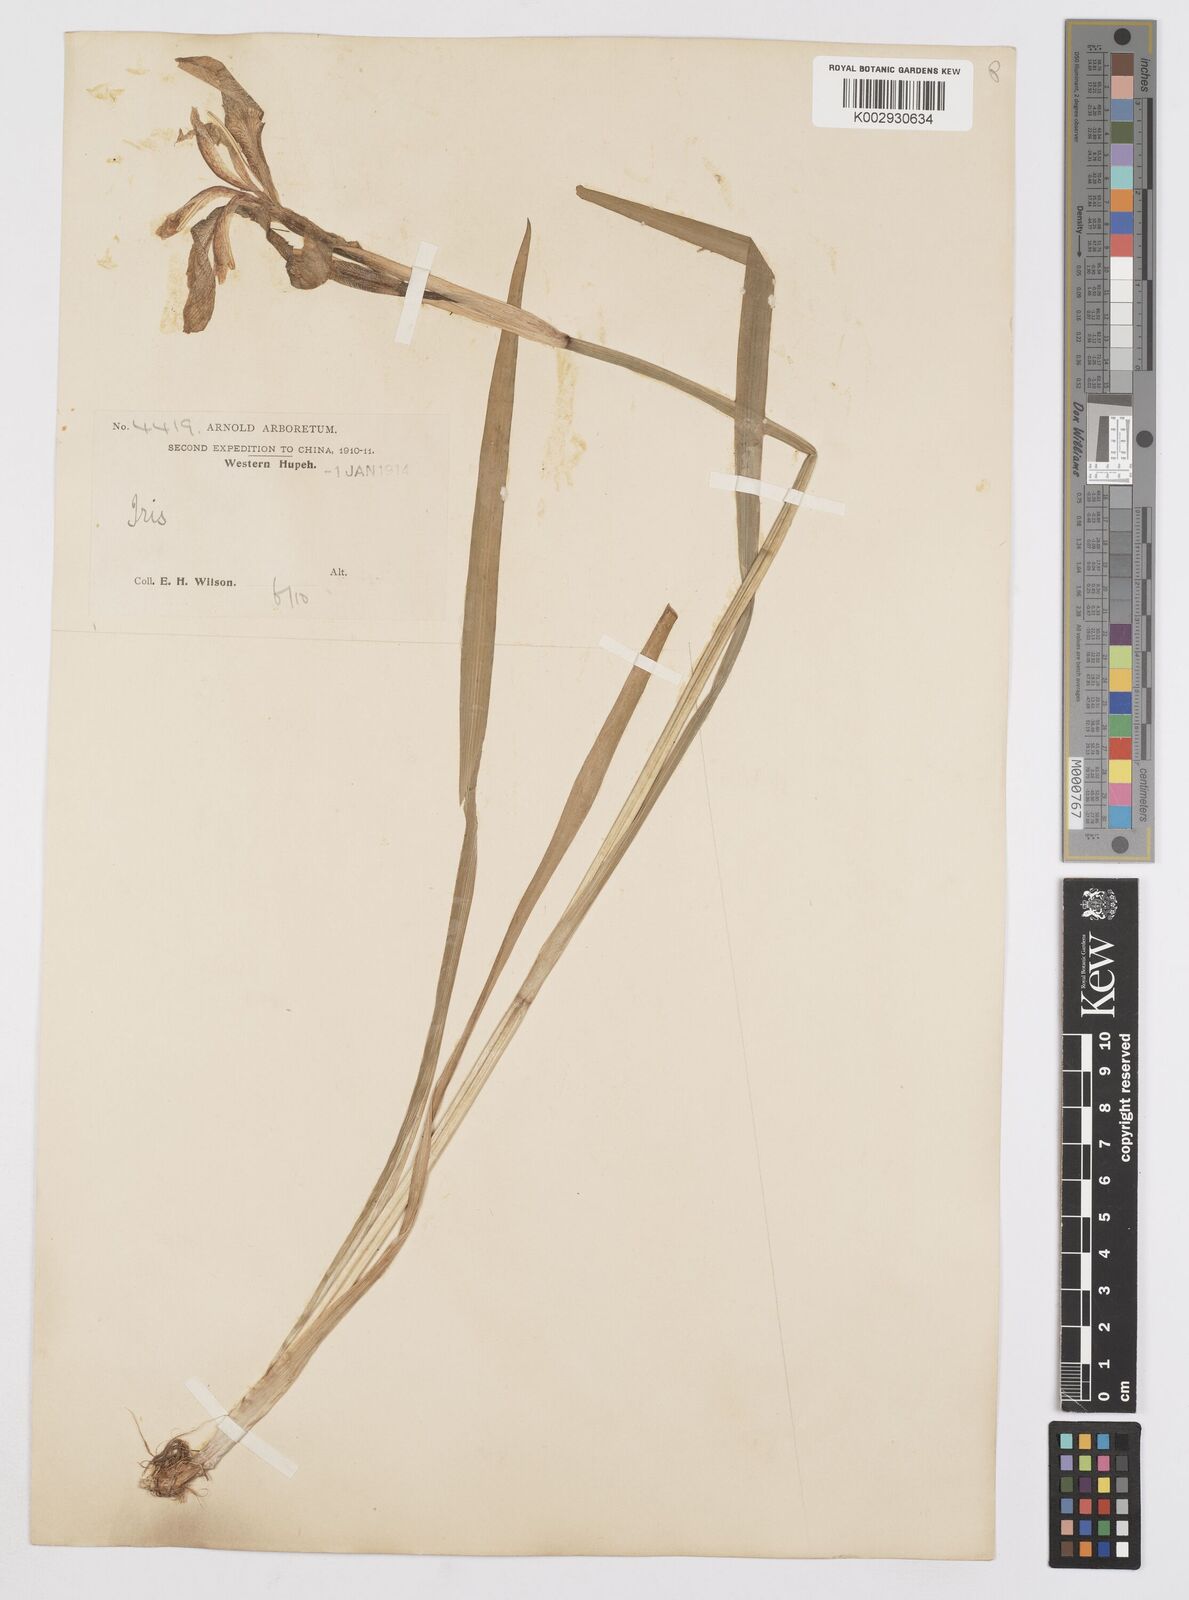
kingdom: Plantae
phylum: Tracheophyta
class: Liliopsida
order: Asparagales
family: Iridaceae
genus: Iris
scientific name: Iris laevigata
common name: Japanese iris
